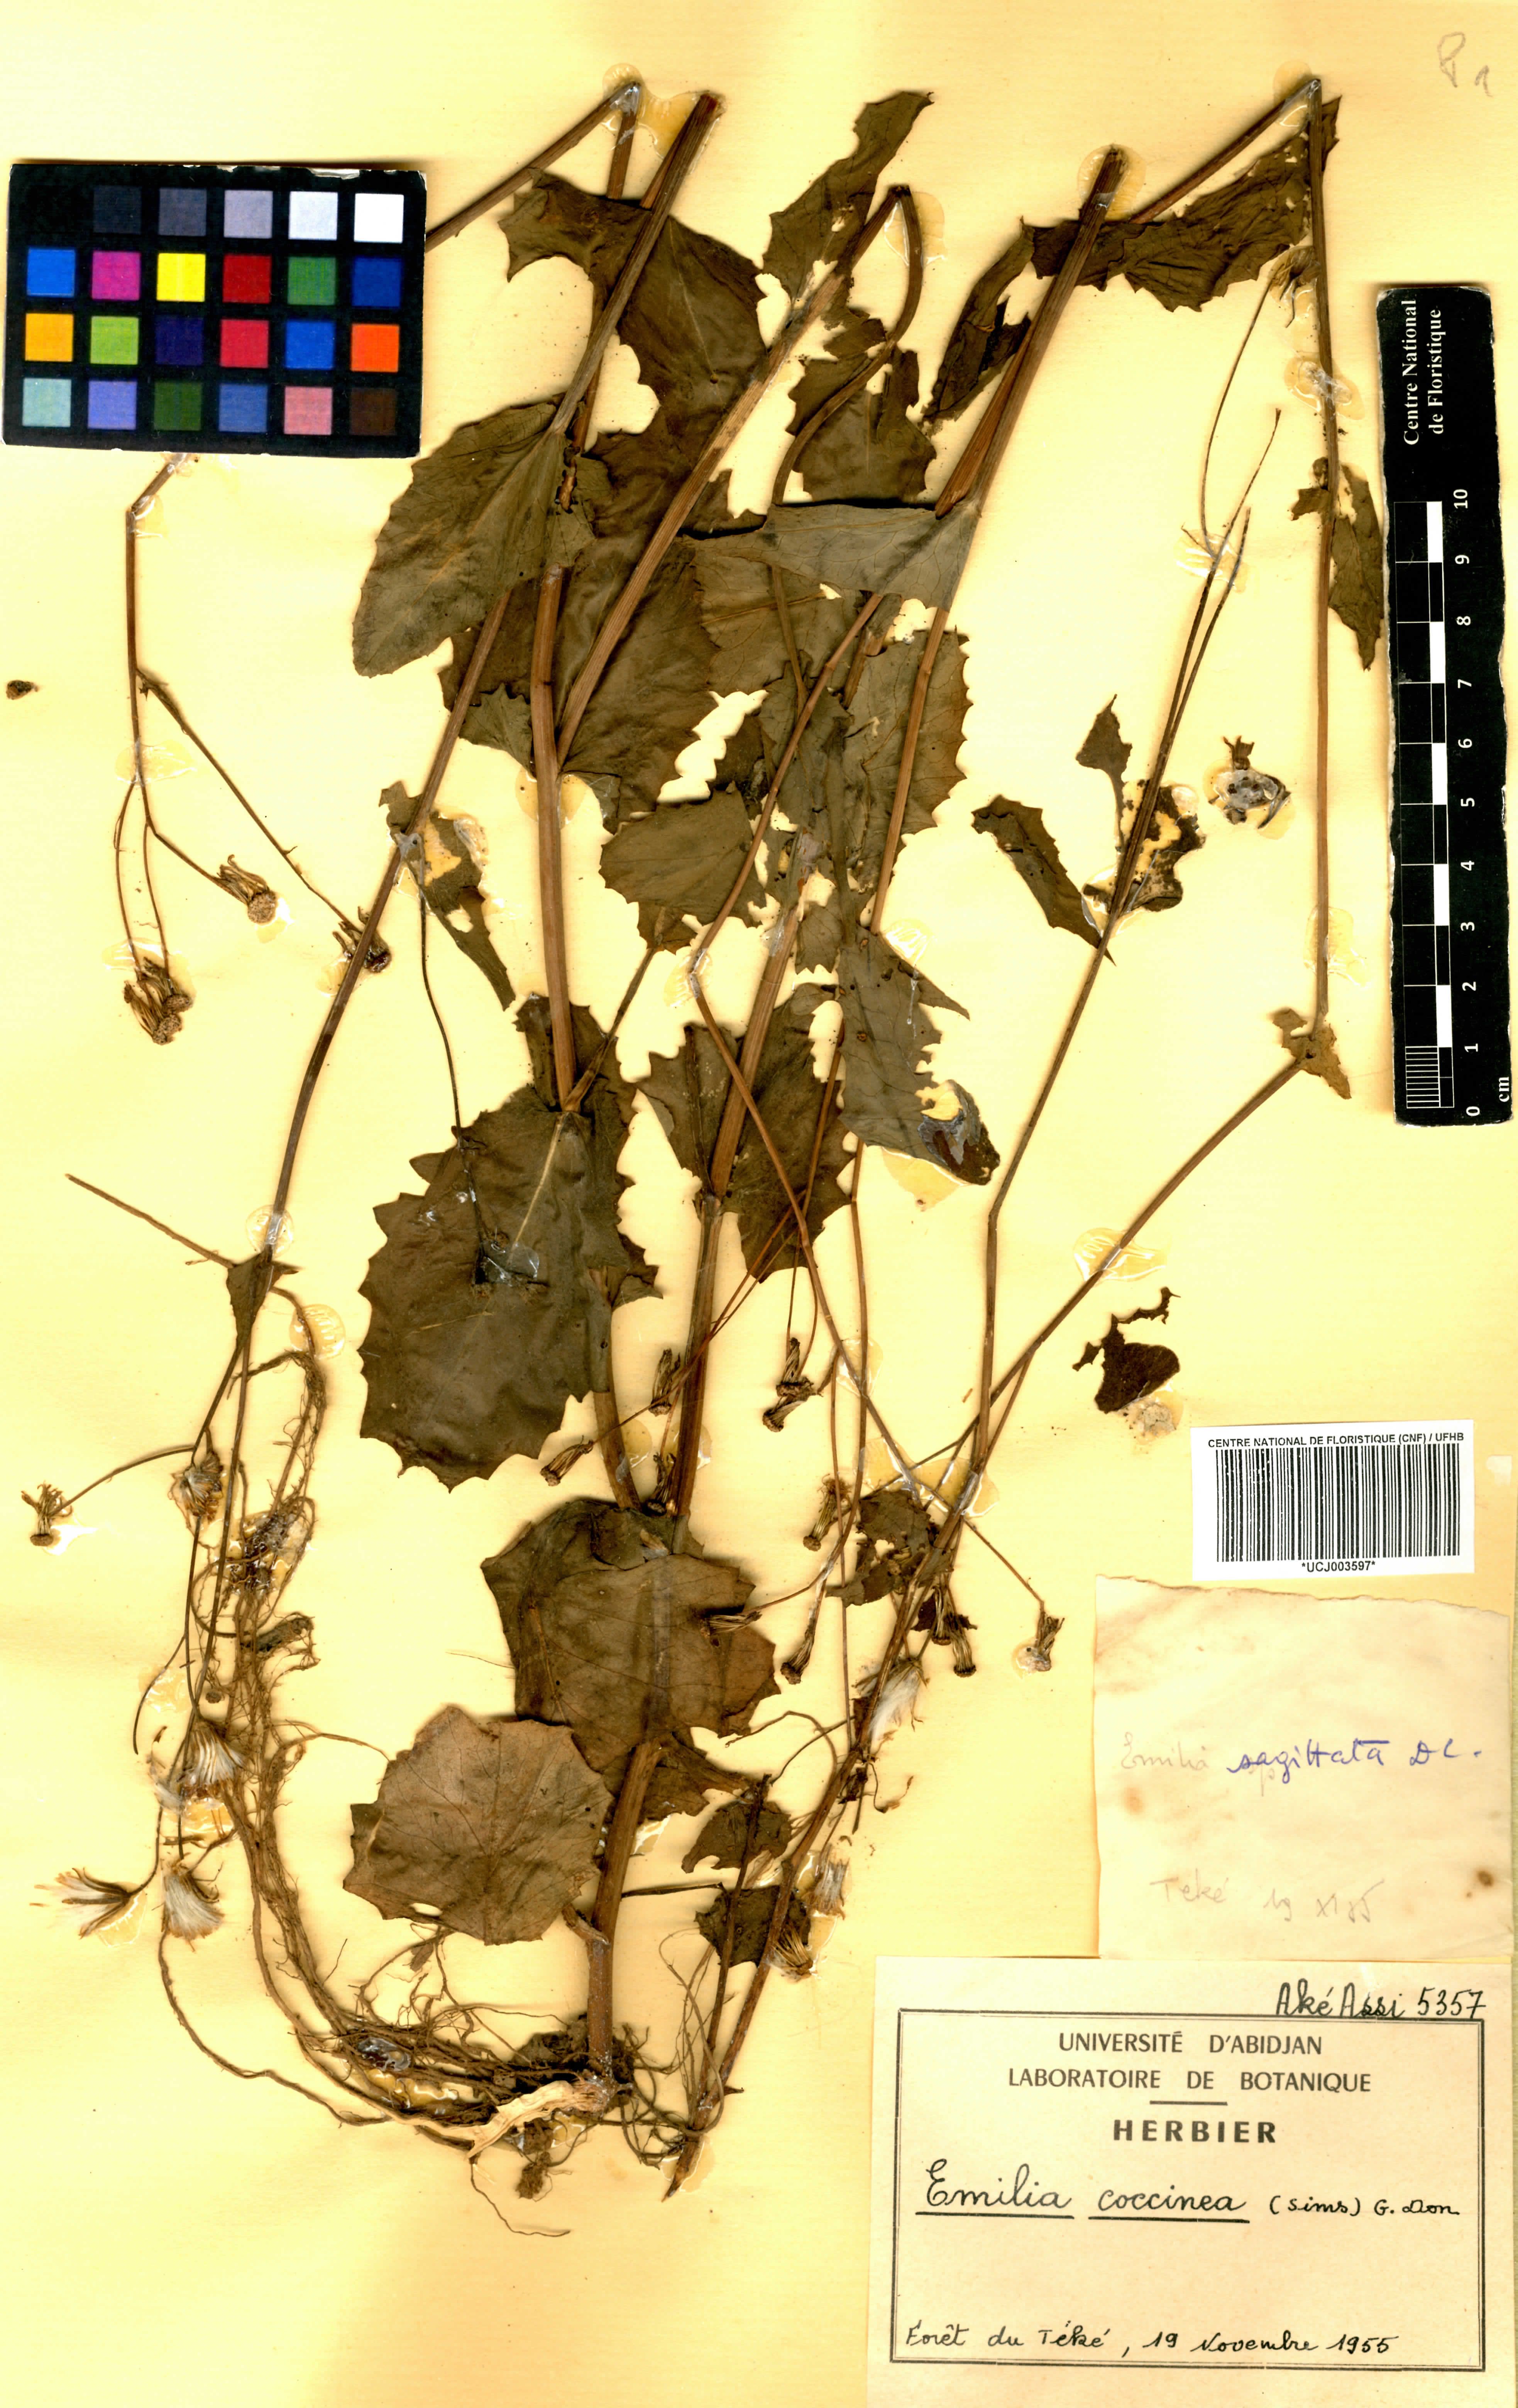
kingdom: Plantae
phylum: Tracheophyta
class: Magnoliopsida
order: Asterales
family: Asteraceae
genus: Emilia
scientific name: Emilia coccinea
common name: Scarlet tasselflower
